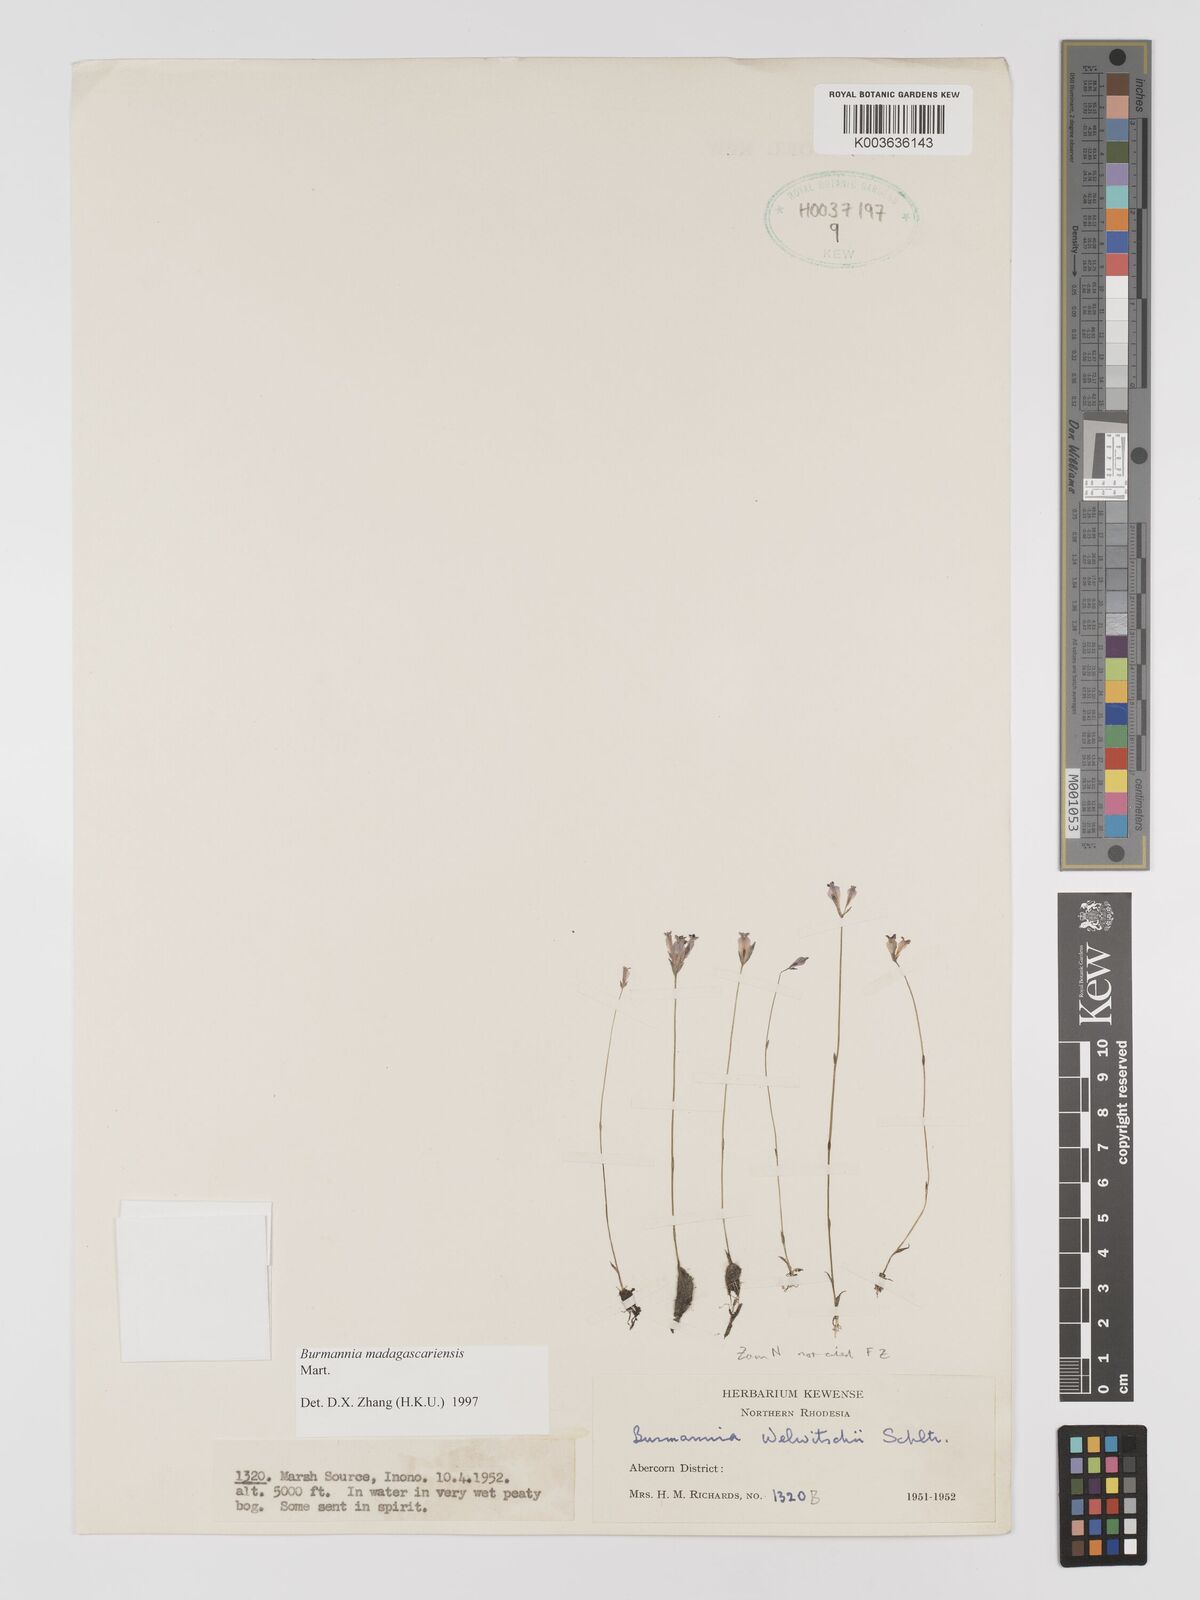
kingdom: Plantae
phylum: Tracheophyta
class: Liliopsida
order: Dioscoreales
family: Burmanniaceae
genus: Burmannia
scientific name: Burmannia madagascariensis
